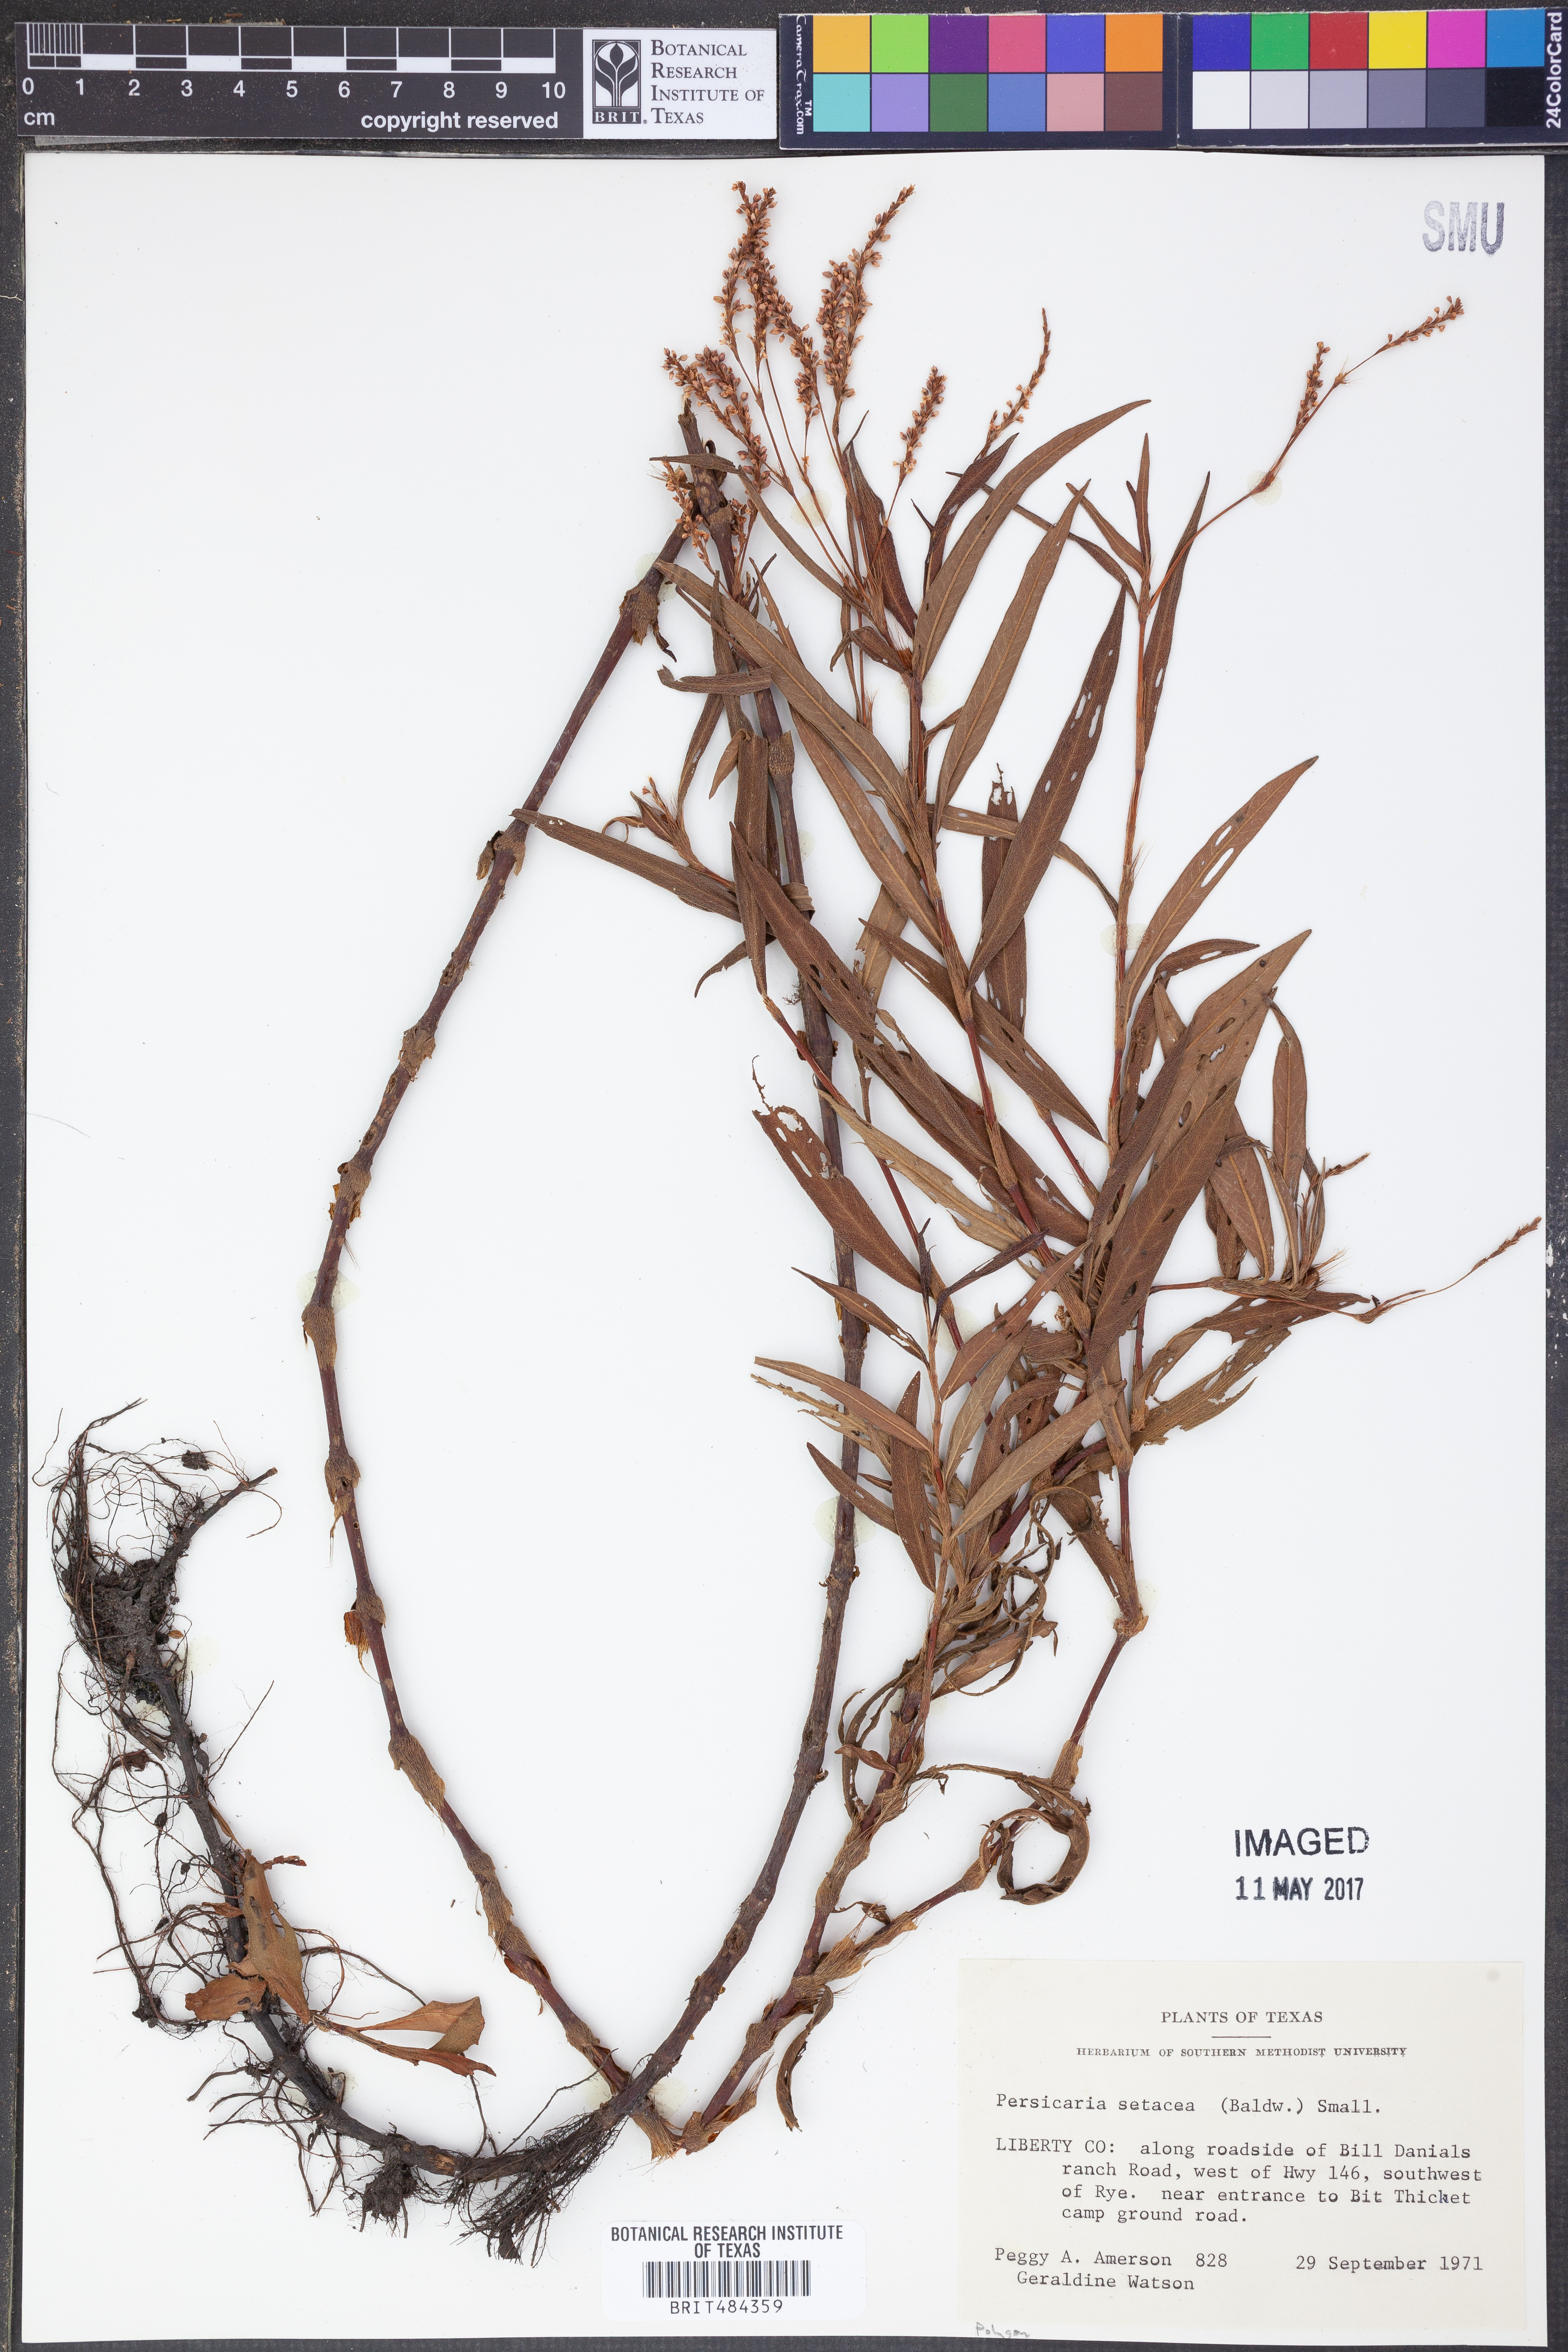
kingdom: Plantae
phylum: Tracheophyta
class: Magnoliopsida
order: Caryophyllales
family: Polygonaceae
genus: Persicaria
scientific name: Persicaria setacea
